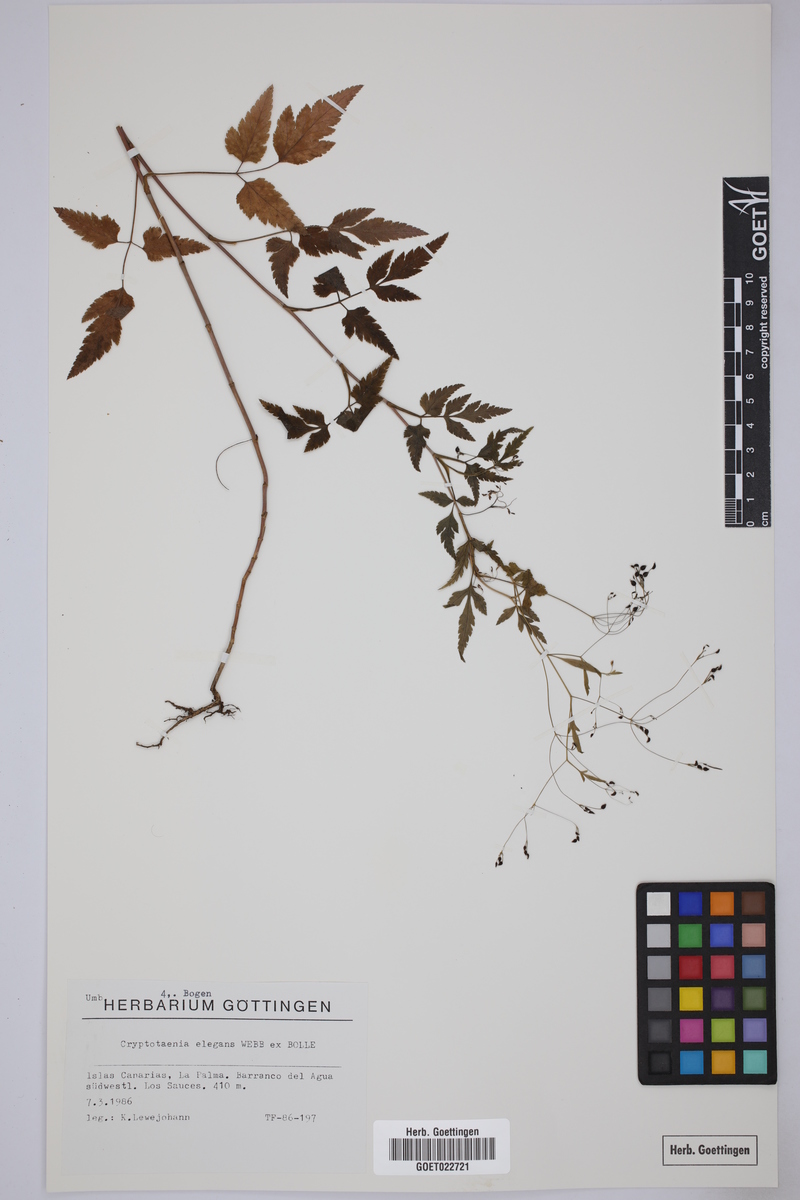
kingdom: Plantae
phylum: Tracheophyta
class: Magnoliopsida
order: Apiales
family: Apiaceae
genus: Daucus
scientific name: Daucus elegans
